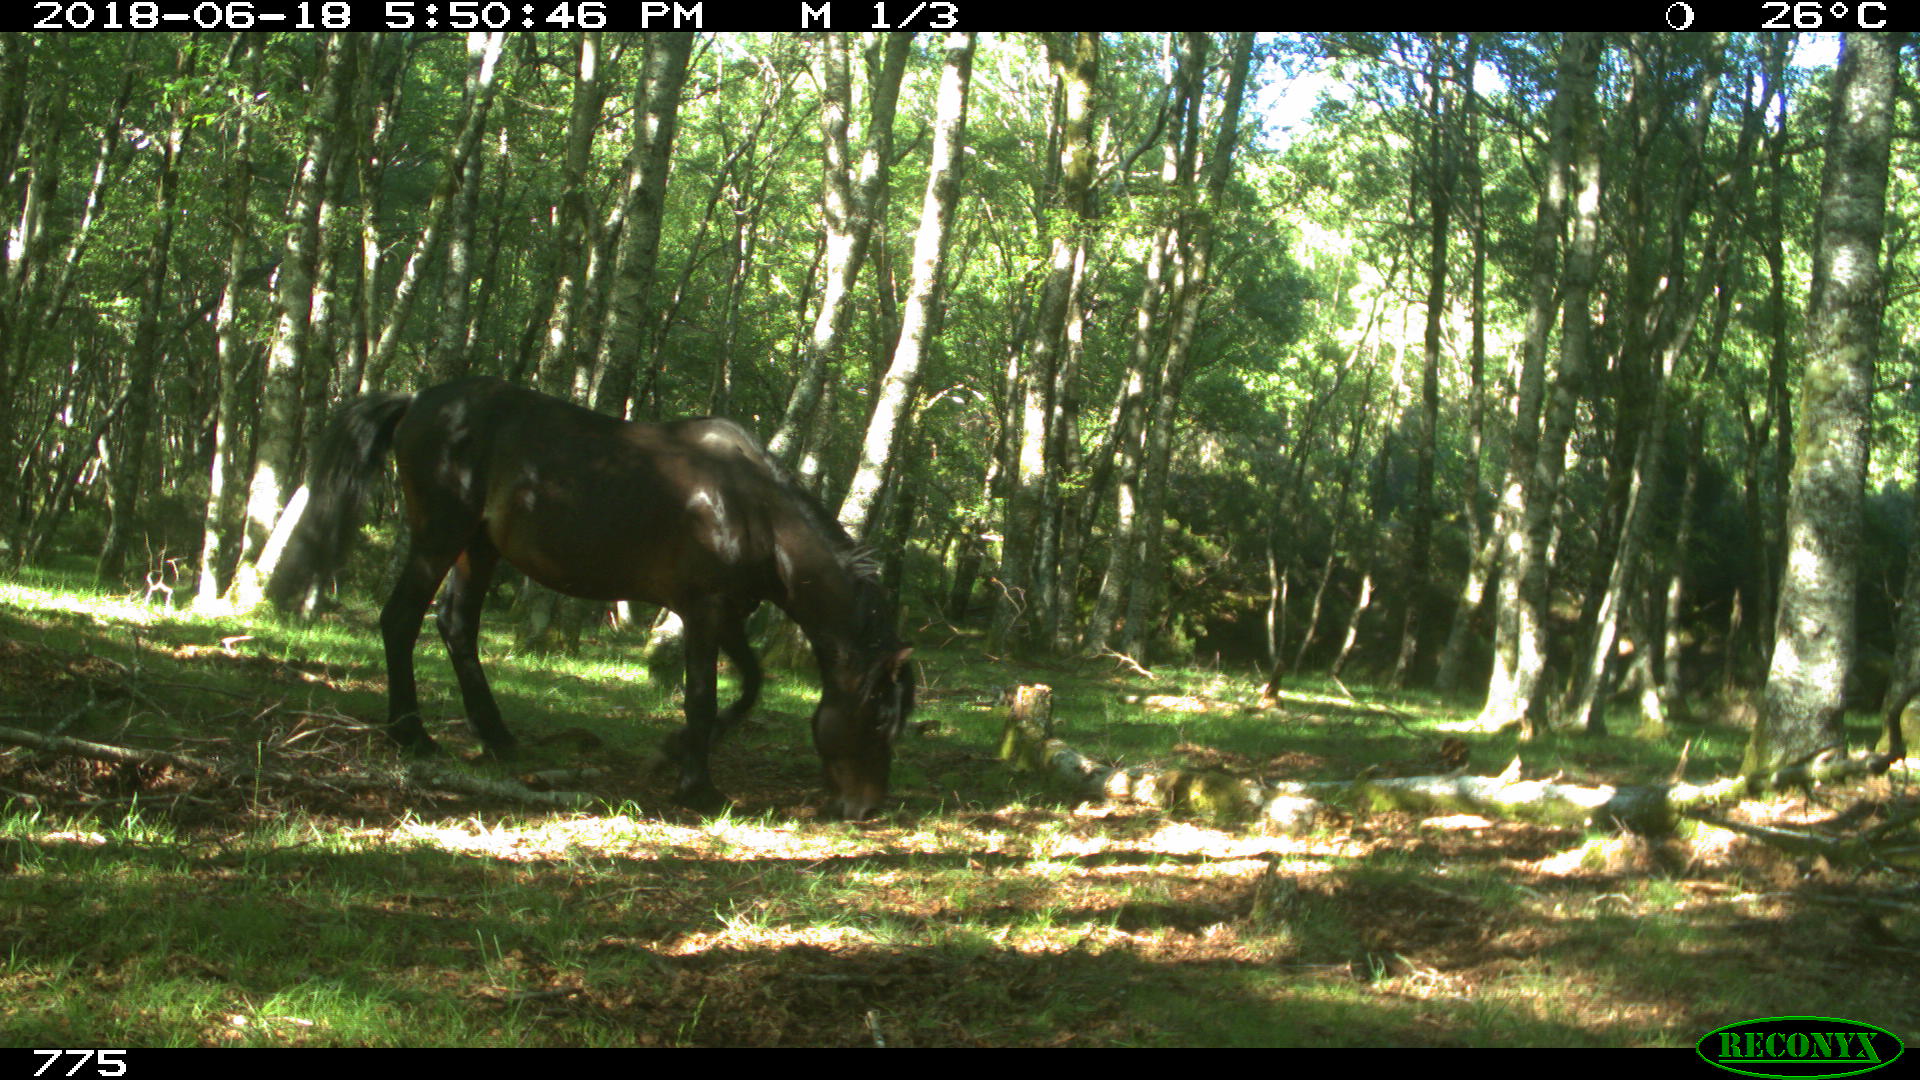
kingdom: Animalia
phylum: Chordata
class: Mammalia
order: Perissodactyla
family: Equidae
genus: Equus
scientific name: Equus caballus
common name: Horse
